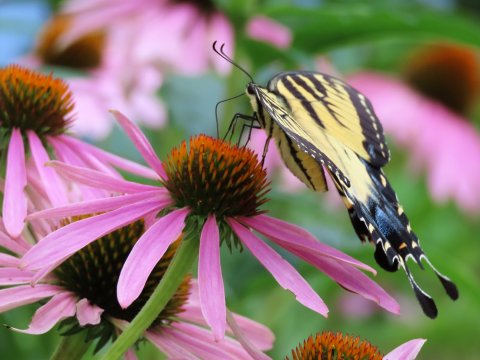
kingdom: Animalia
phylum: Arthropoda
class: Insecta
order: Lepidoptera
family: Papilionidae
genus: Pterourus
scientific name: Pterourus glaucus
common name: Eastern Tiger Swallowtail
